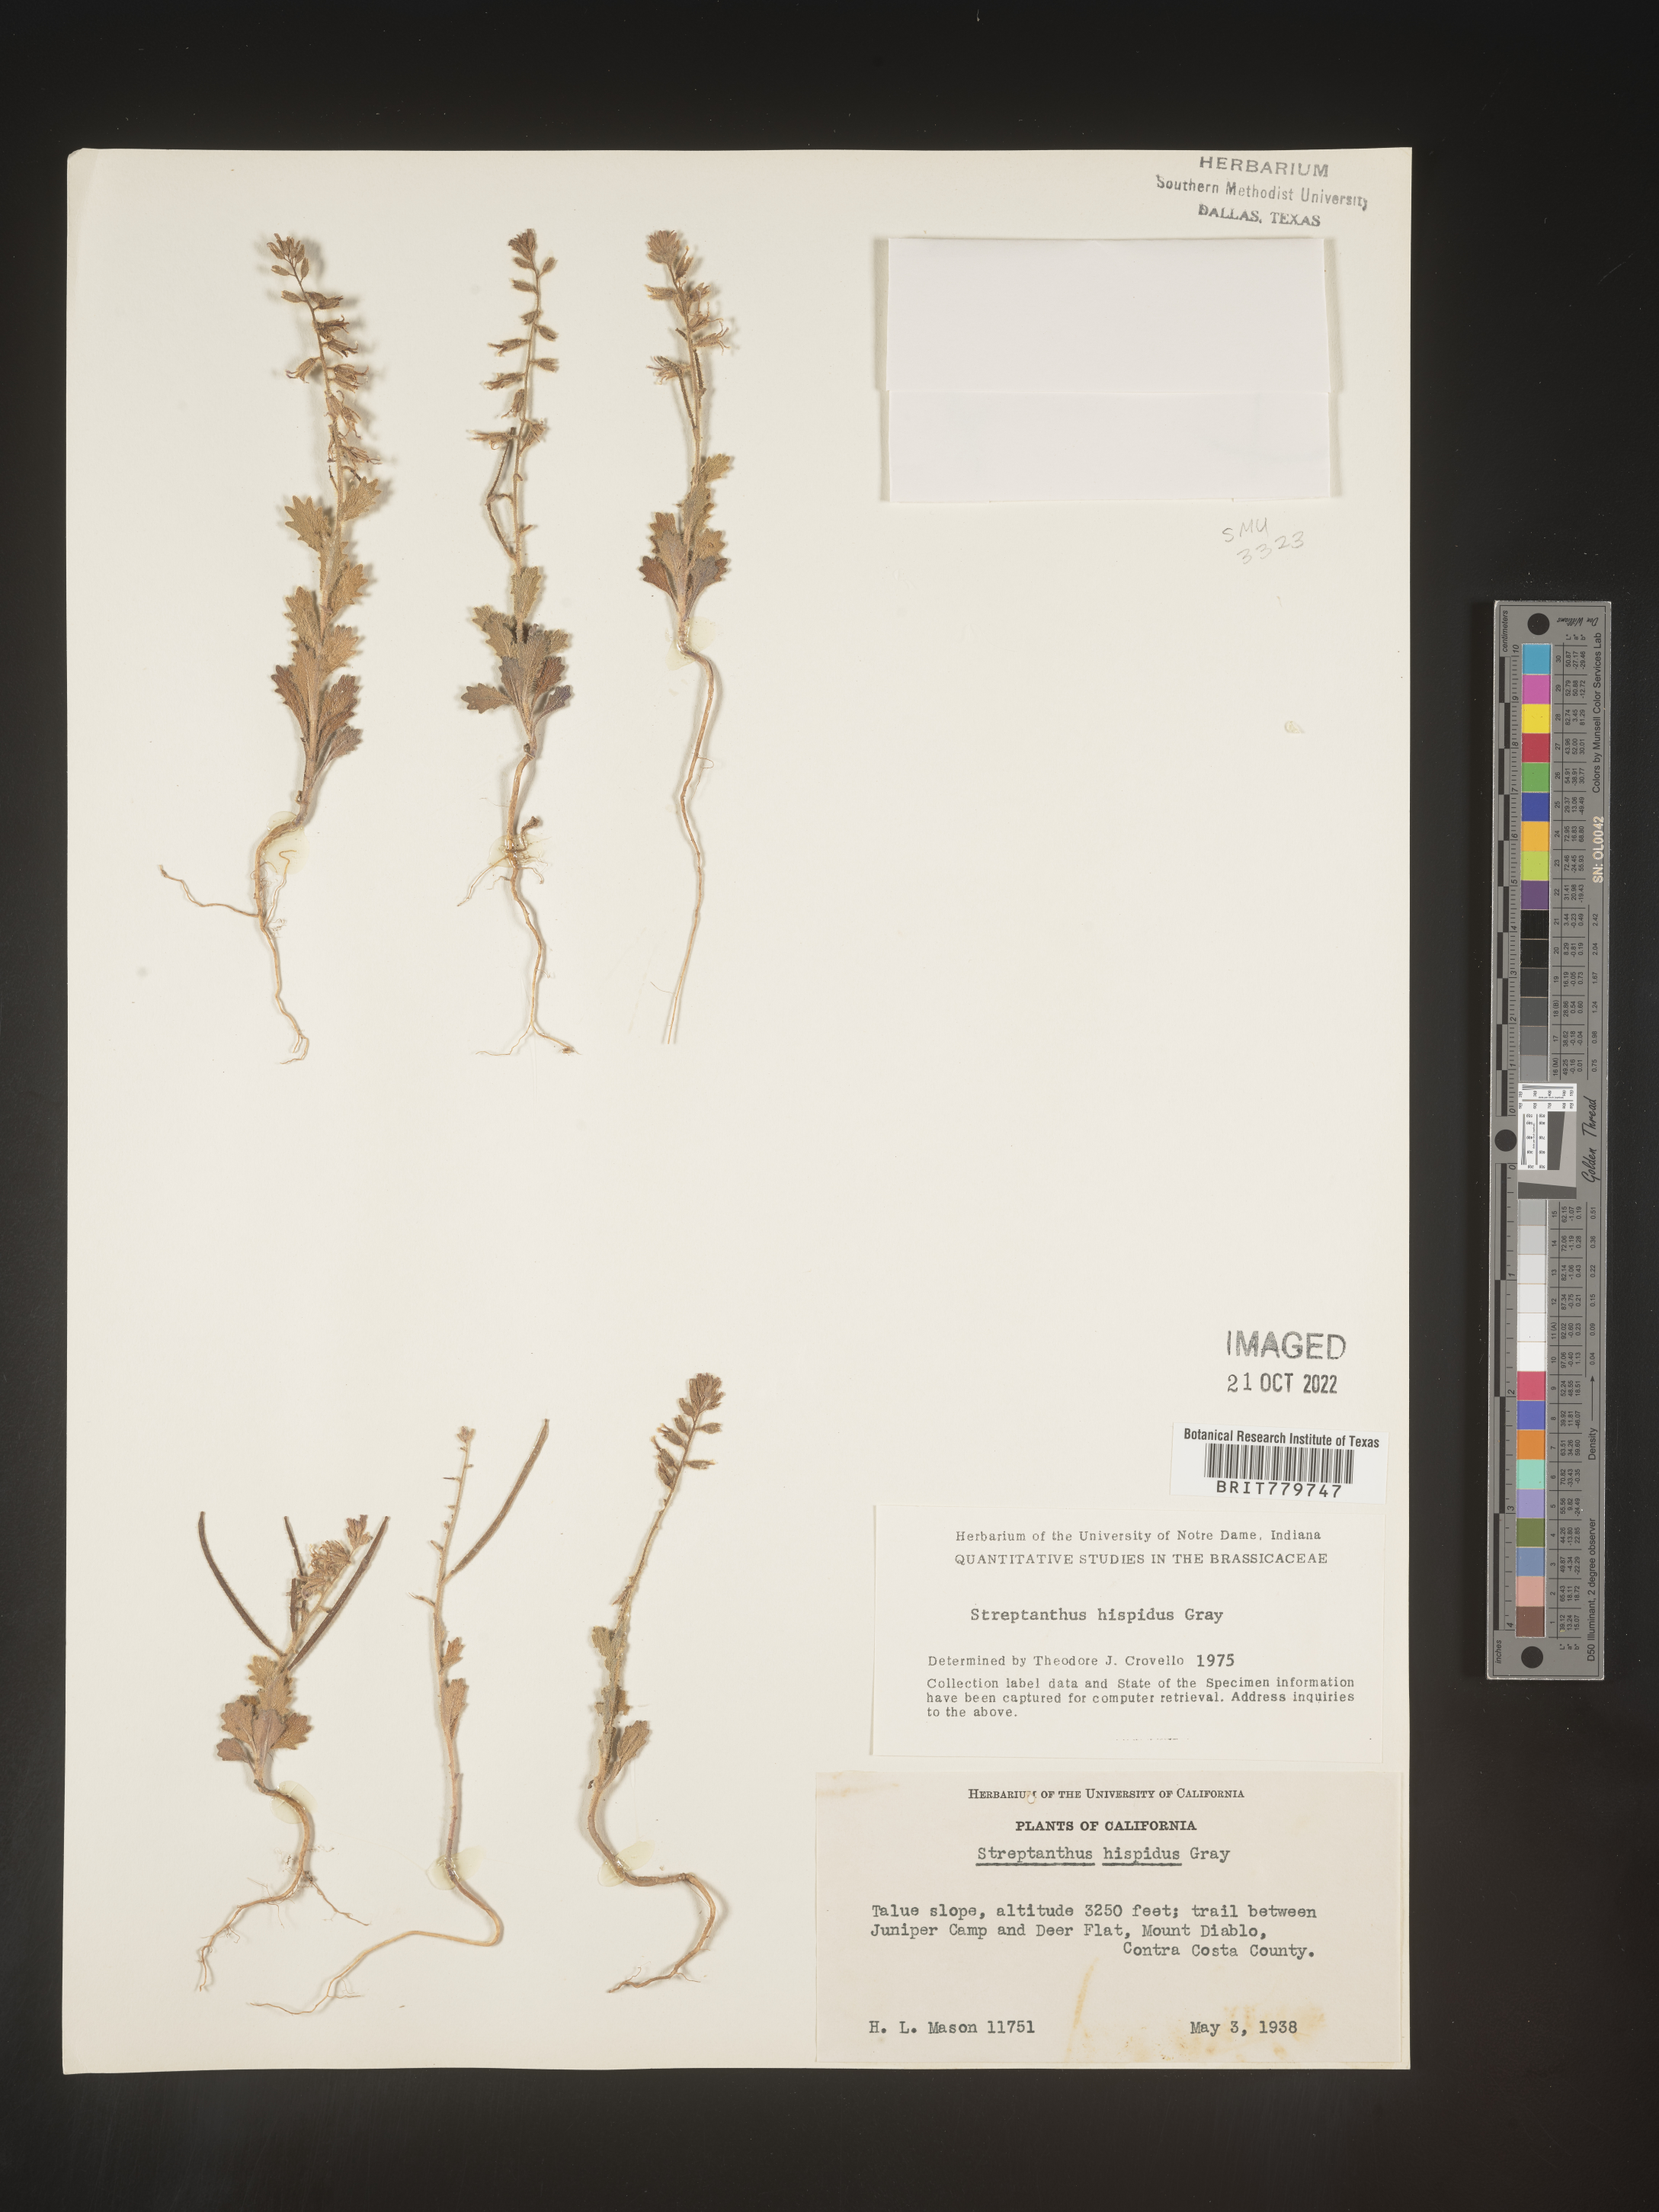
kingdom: Plantae
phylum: Tracheophyta
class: Magnoliopsida
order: Brassicales
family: Brassicaceae
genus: Streptanthus
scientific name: Streptanthus
